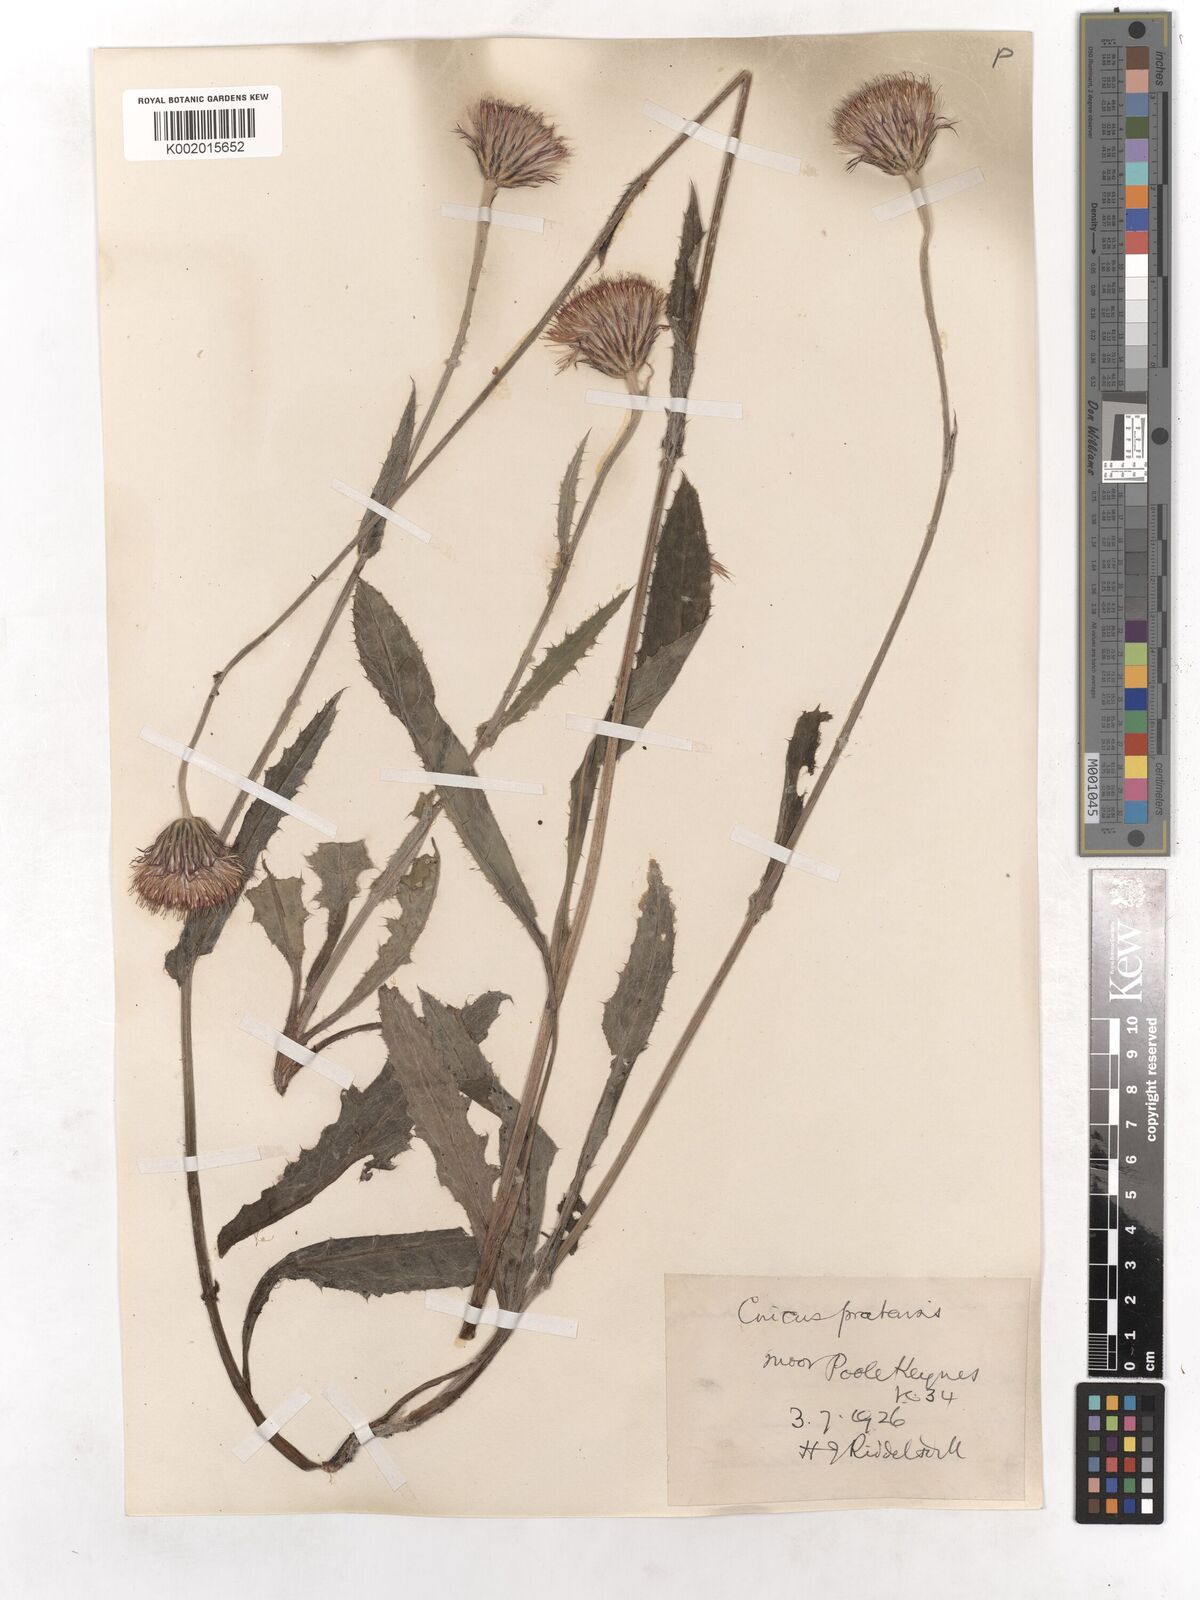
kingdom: Plantae
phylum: Tracheophyta
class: Magnoliopsida
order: Asterales
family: Asteraceae
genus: Cirsium
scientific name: Cirsium dissectum
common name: Meadow thistle
